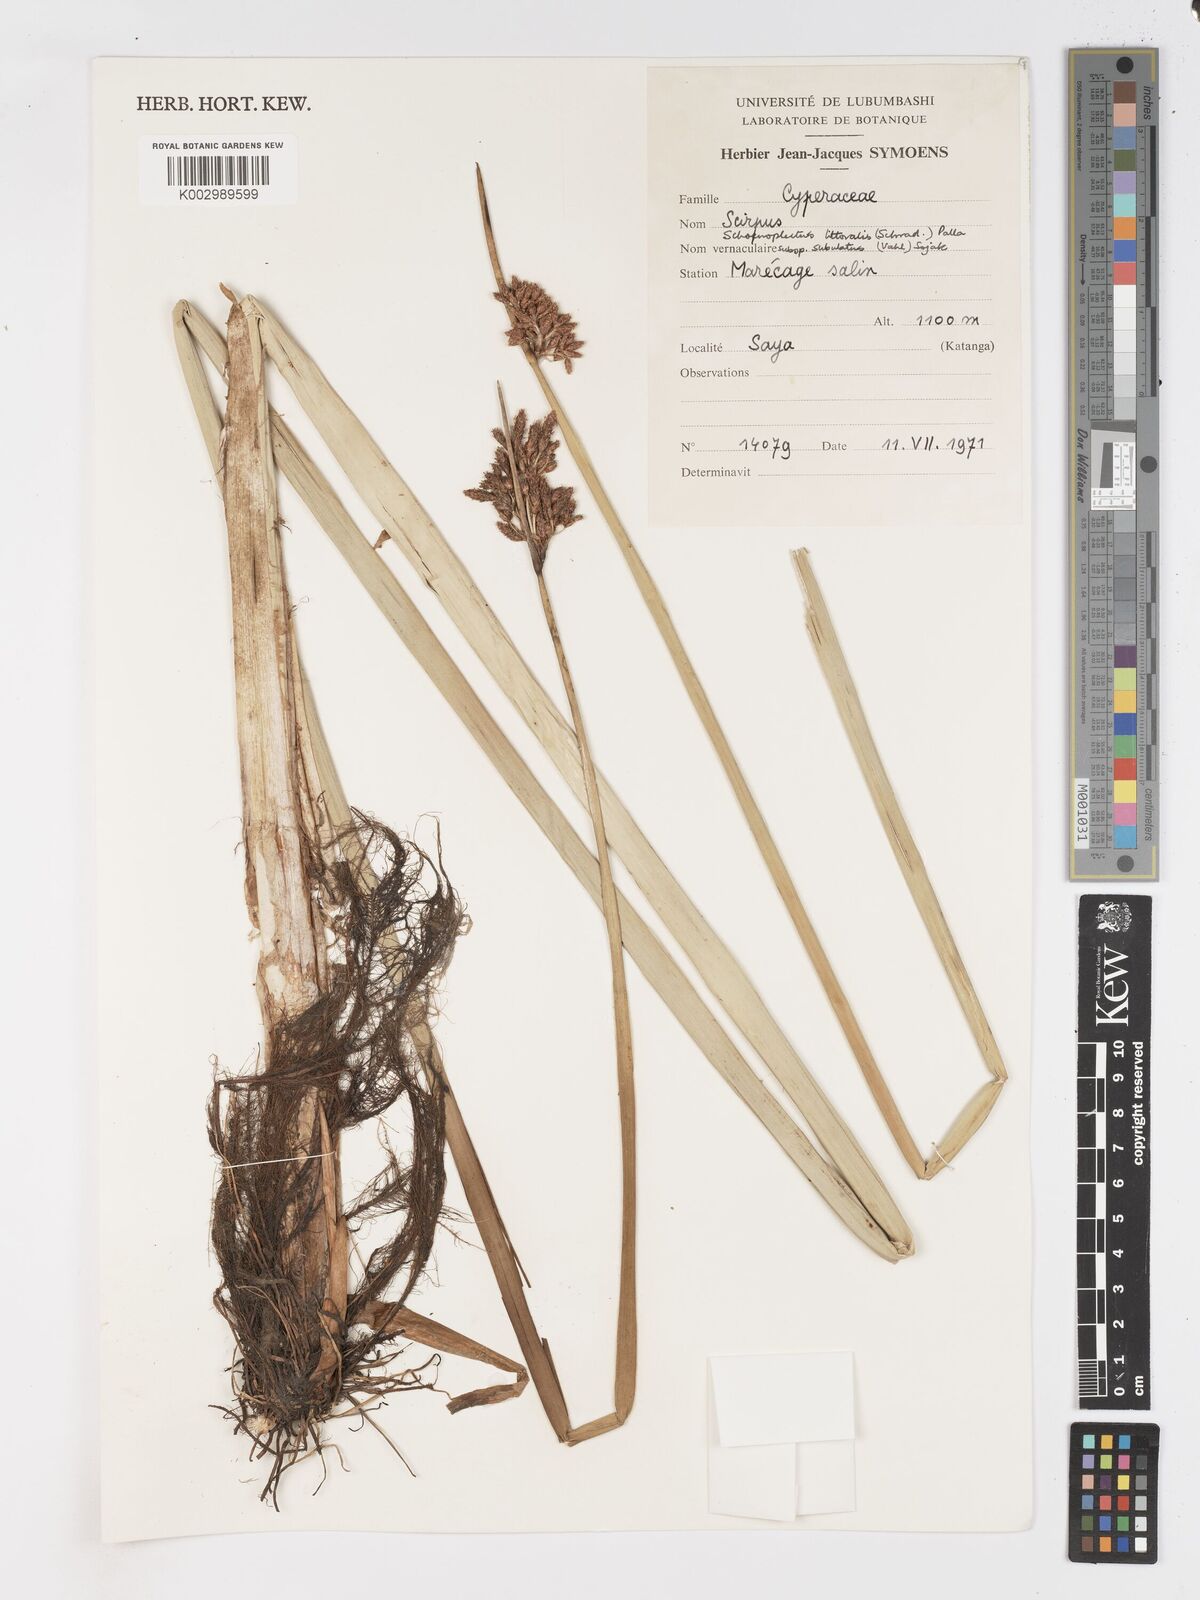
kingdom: Plantae
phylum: Tracheophyta
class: Liliopsida
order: Poales
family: Cyperaceae
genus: Schoenoplectus
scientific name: Schoenoplectus
